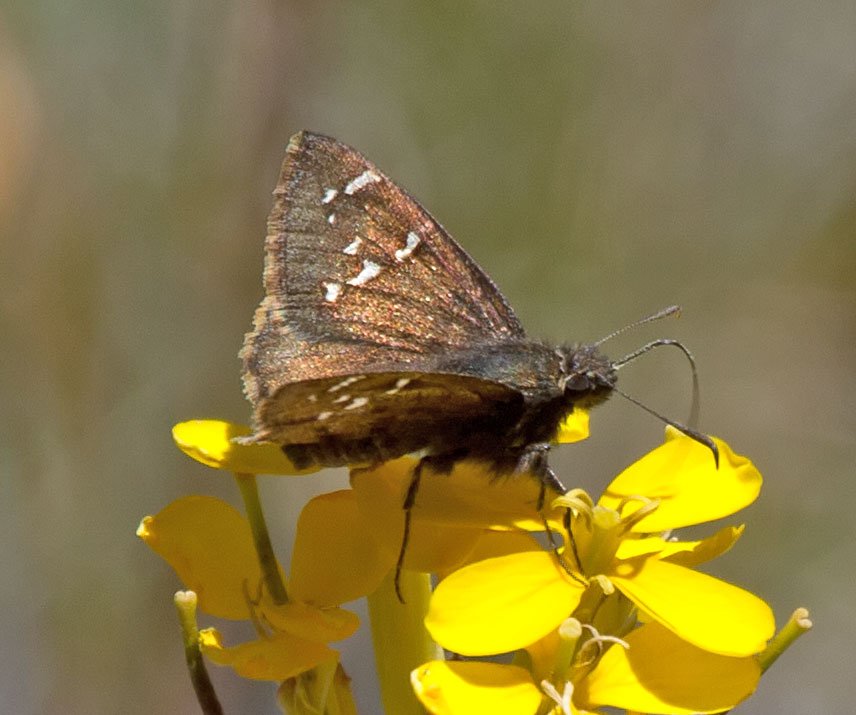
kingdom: Animalia
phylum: Arthropoda
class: Insecta
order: Lepidoptera
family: Hesperiidae
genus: Thorybes
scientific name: Thorybes mexicana
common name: Mexican Cloudywing
